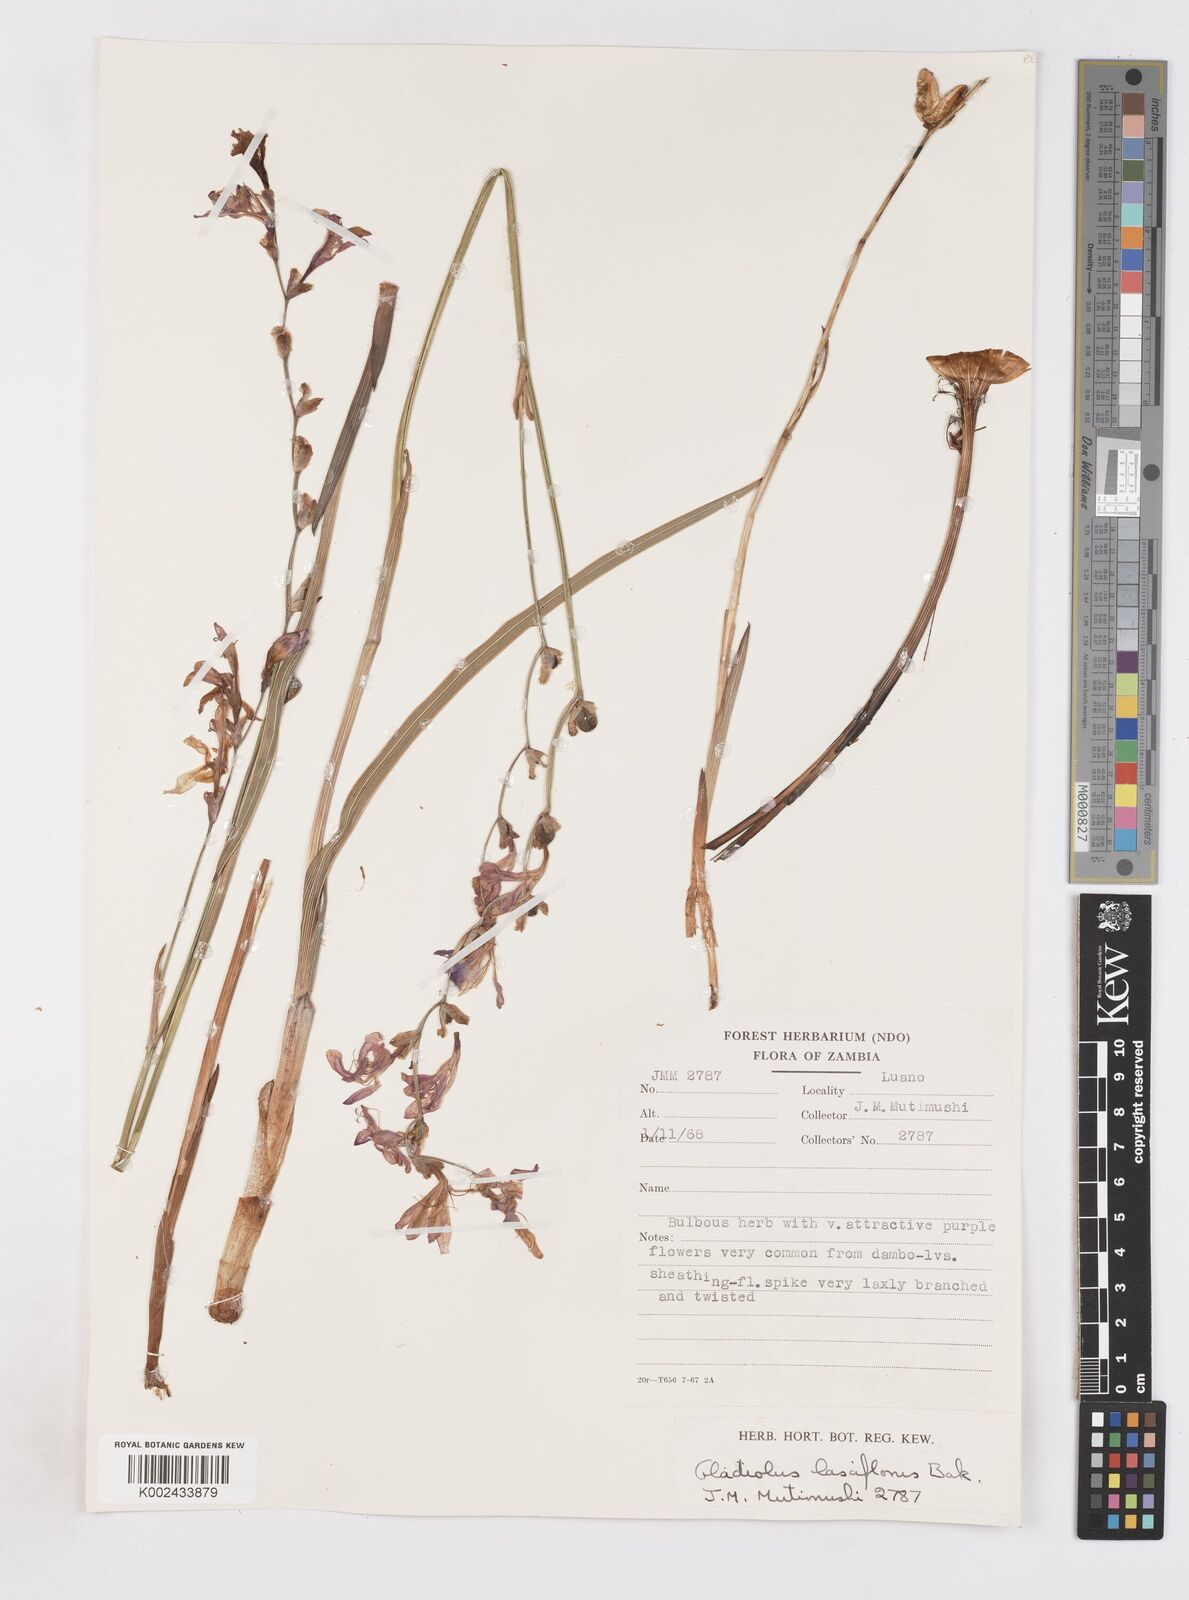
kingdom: Plantae
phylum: Tracheophyta
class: Liliopsida
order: Asparagales
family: Iridaceae
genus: Gladiolus
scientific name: Gladiolus laxiflorus
